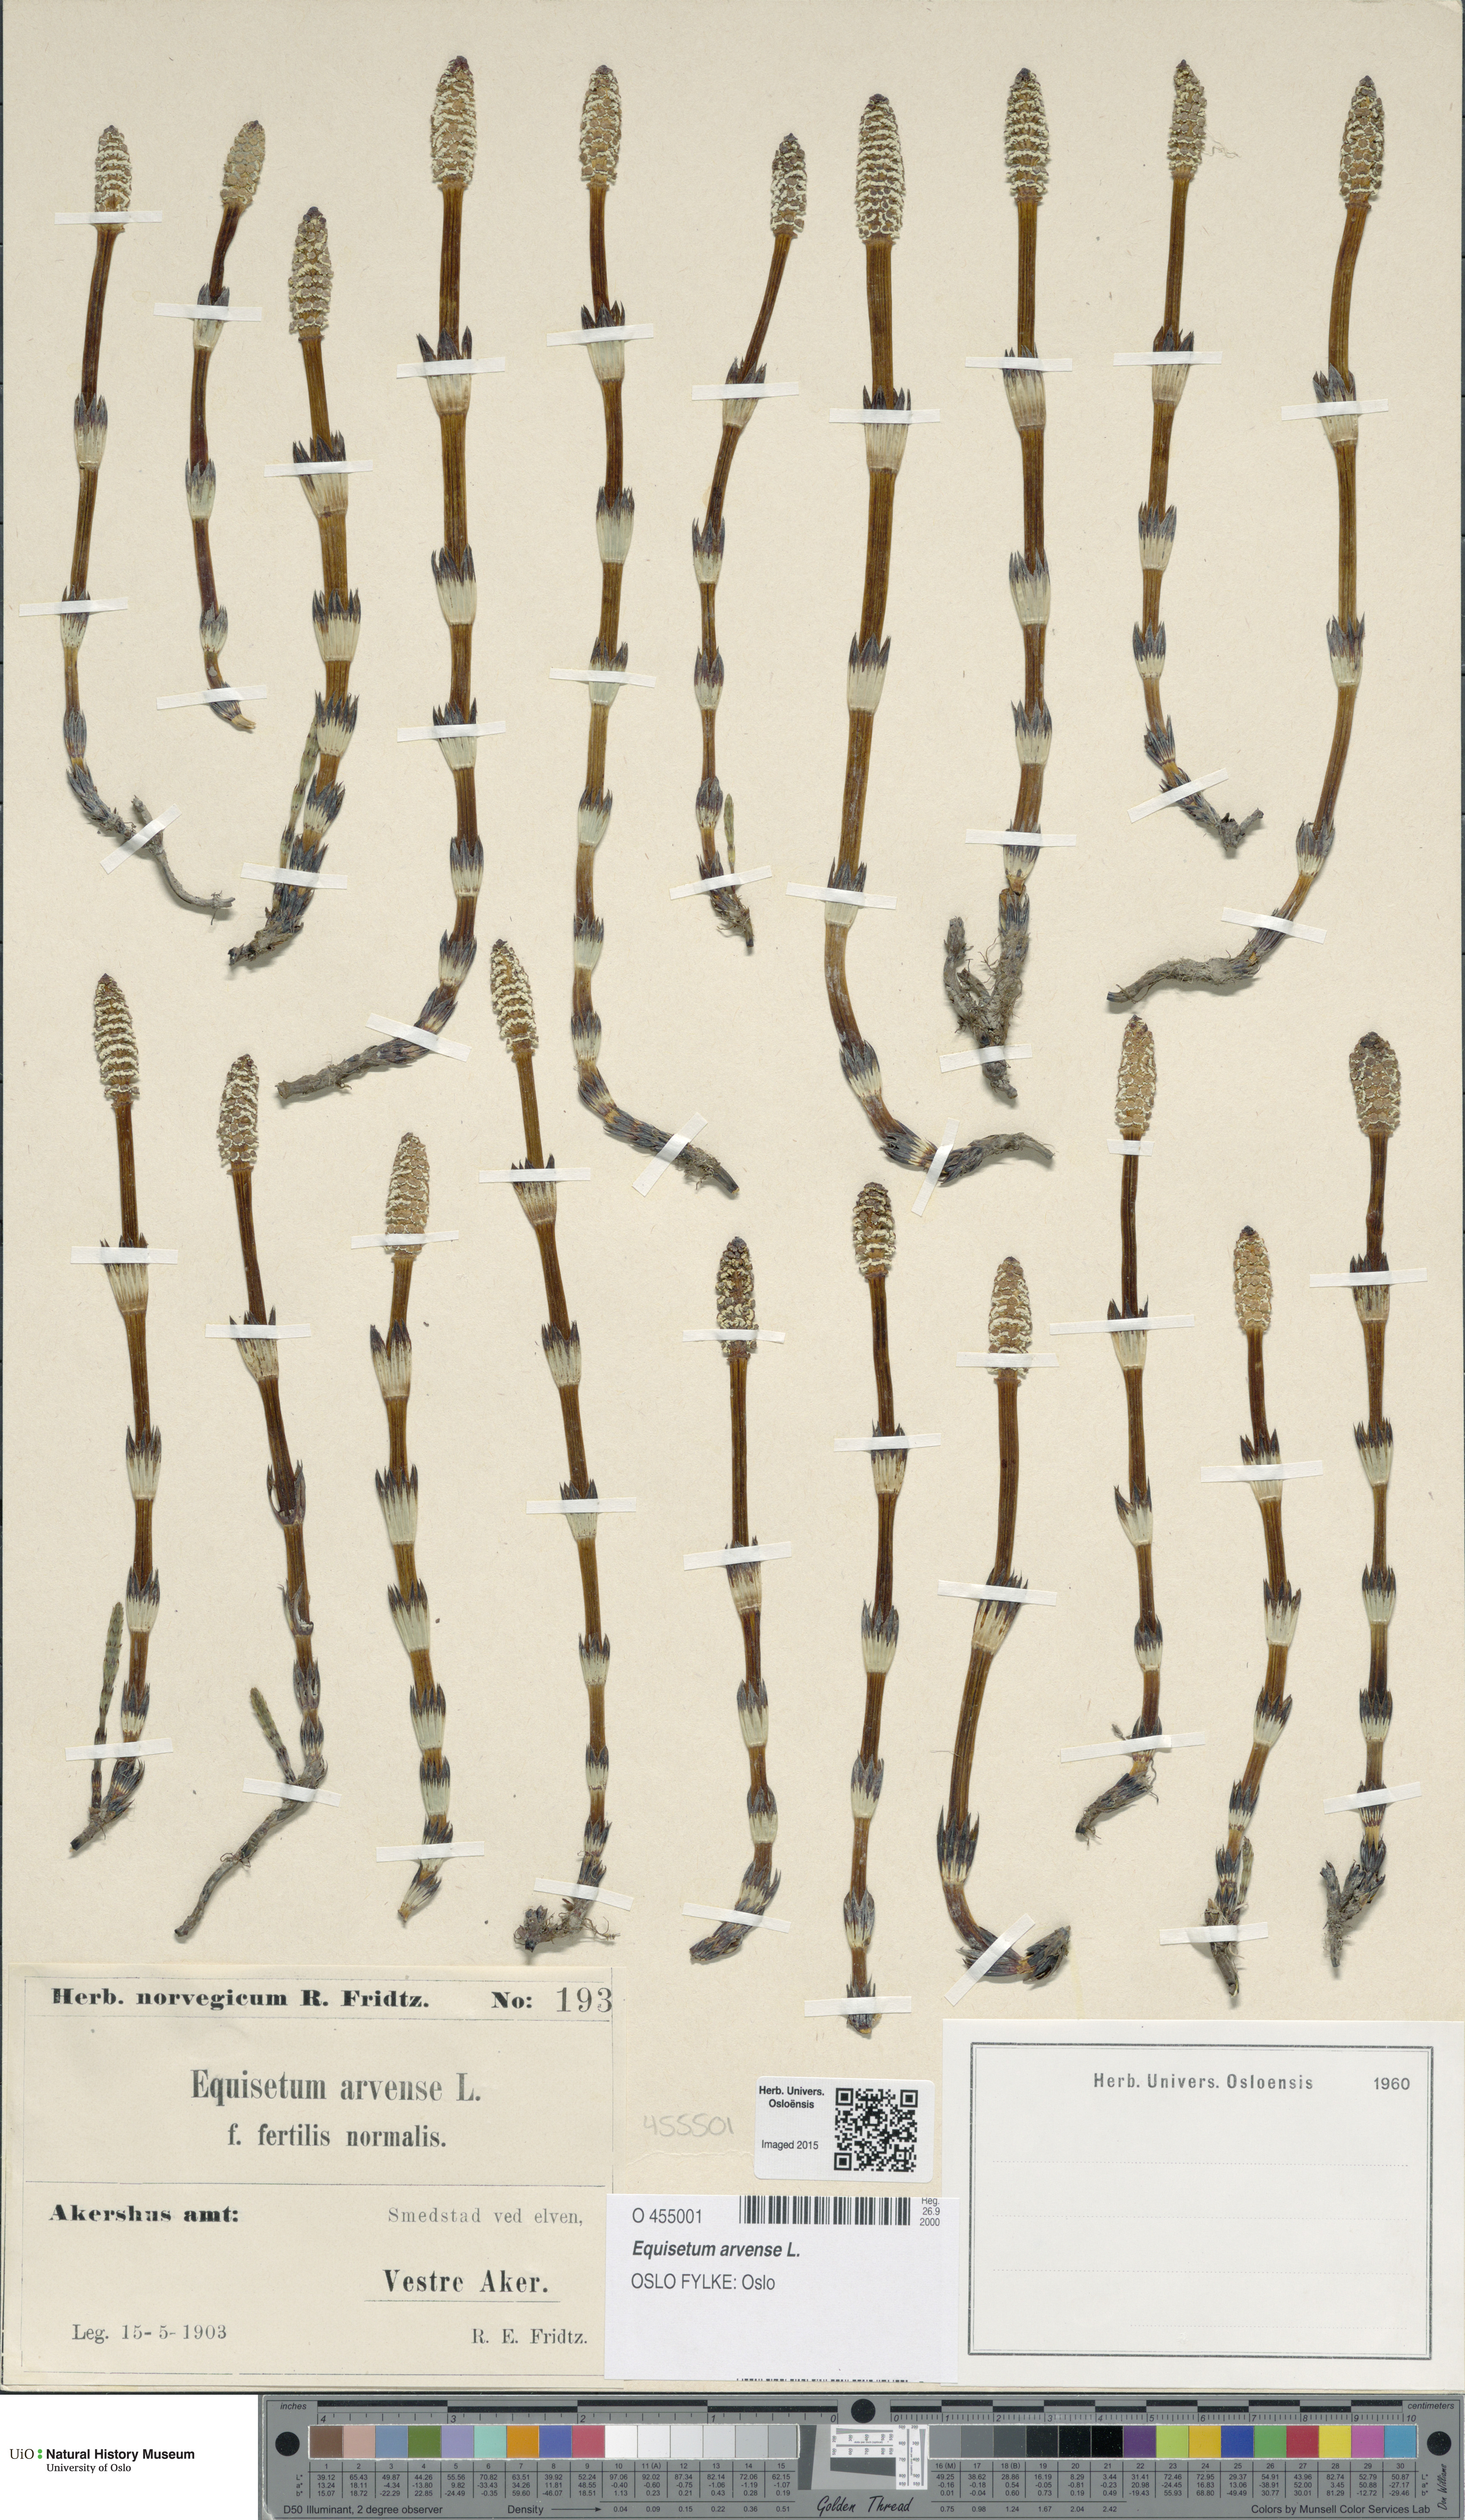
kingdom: Plantae
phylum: Tracheophyta
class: Polypodiopsida
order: Equisetales
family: Equisetaceae
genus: Equisetum
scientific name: Equisetum arvense
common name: Field horsetail
